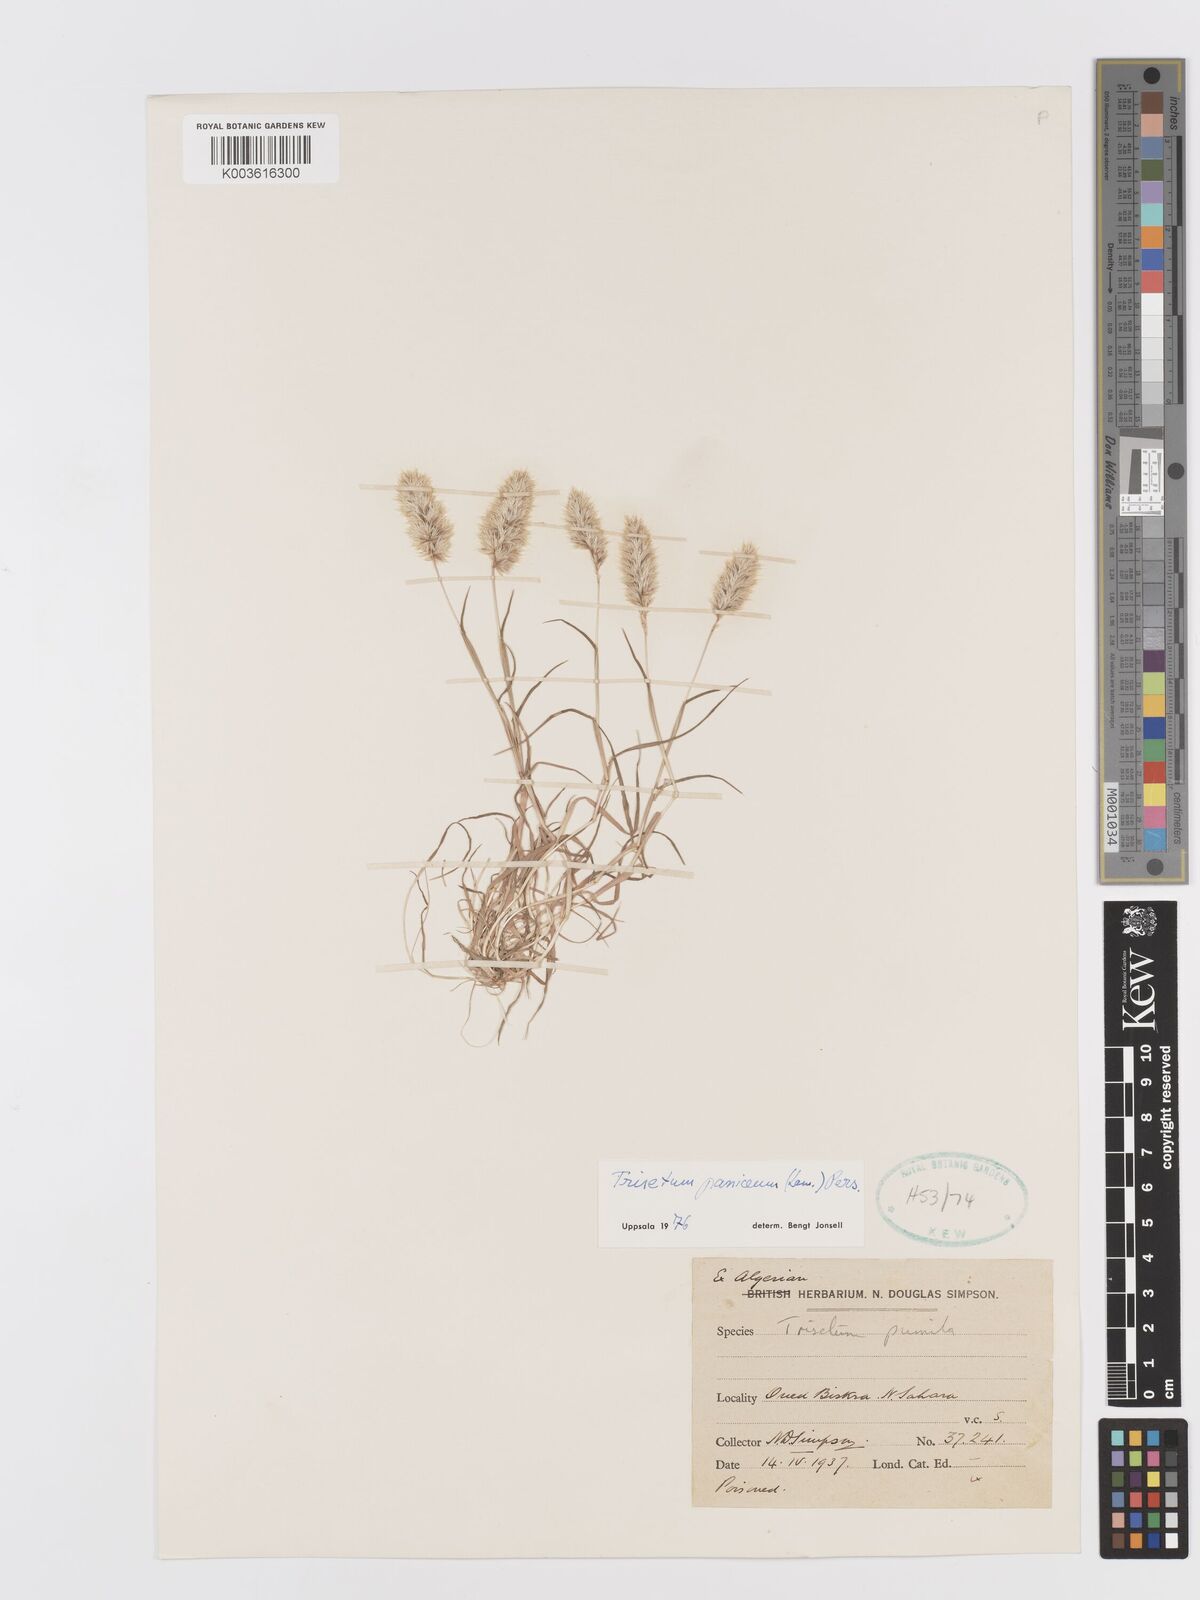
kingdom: Plantae
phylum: Tracheophyta
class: Liliopsida
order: Poales
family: Poaceae
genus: Trisetaria
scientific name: Trisetaria panicea
